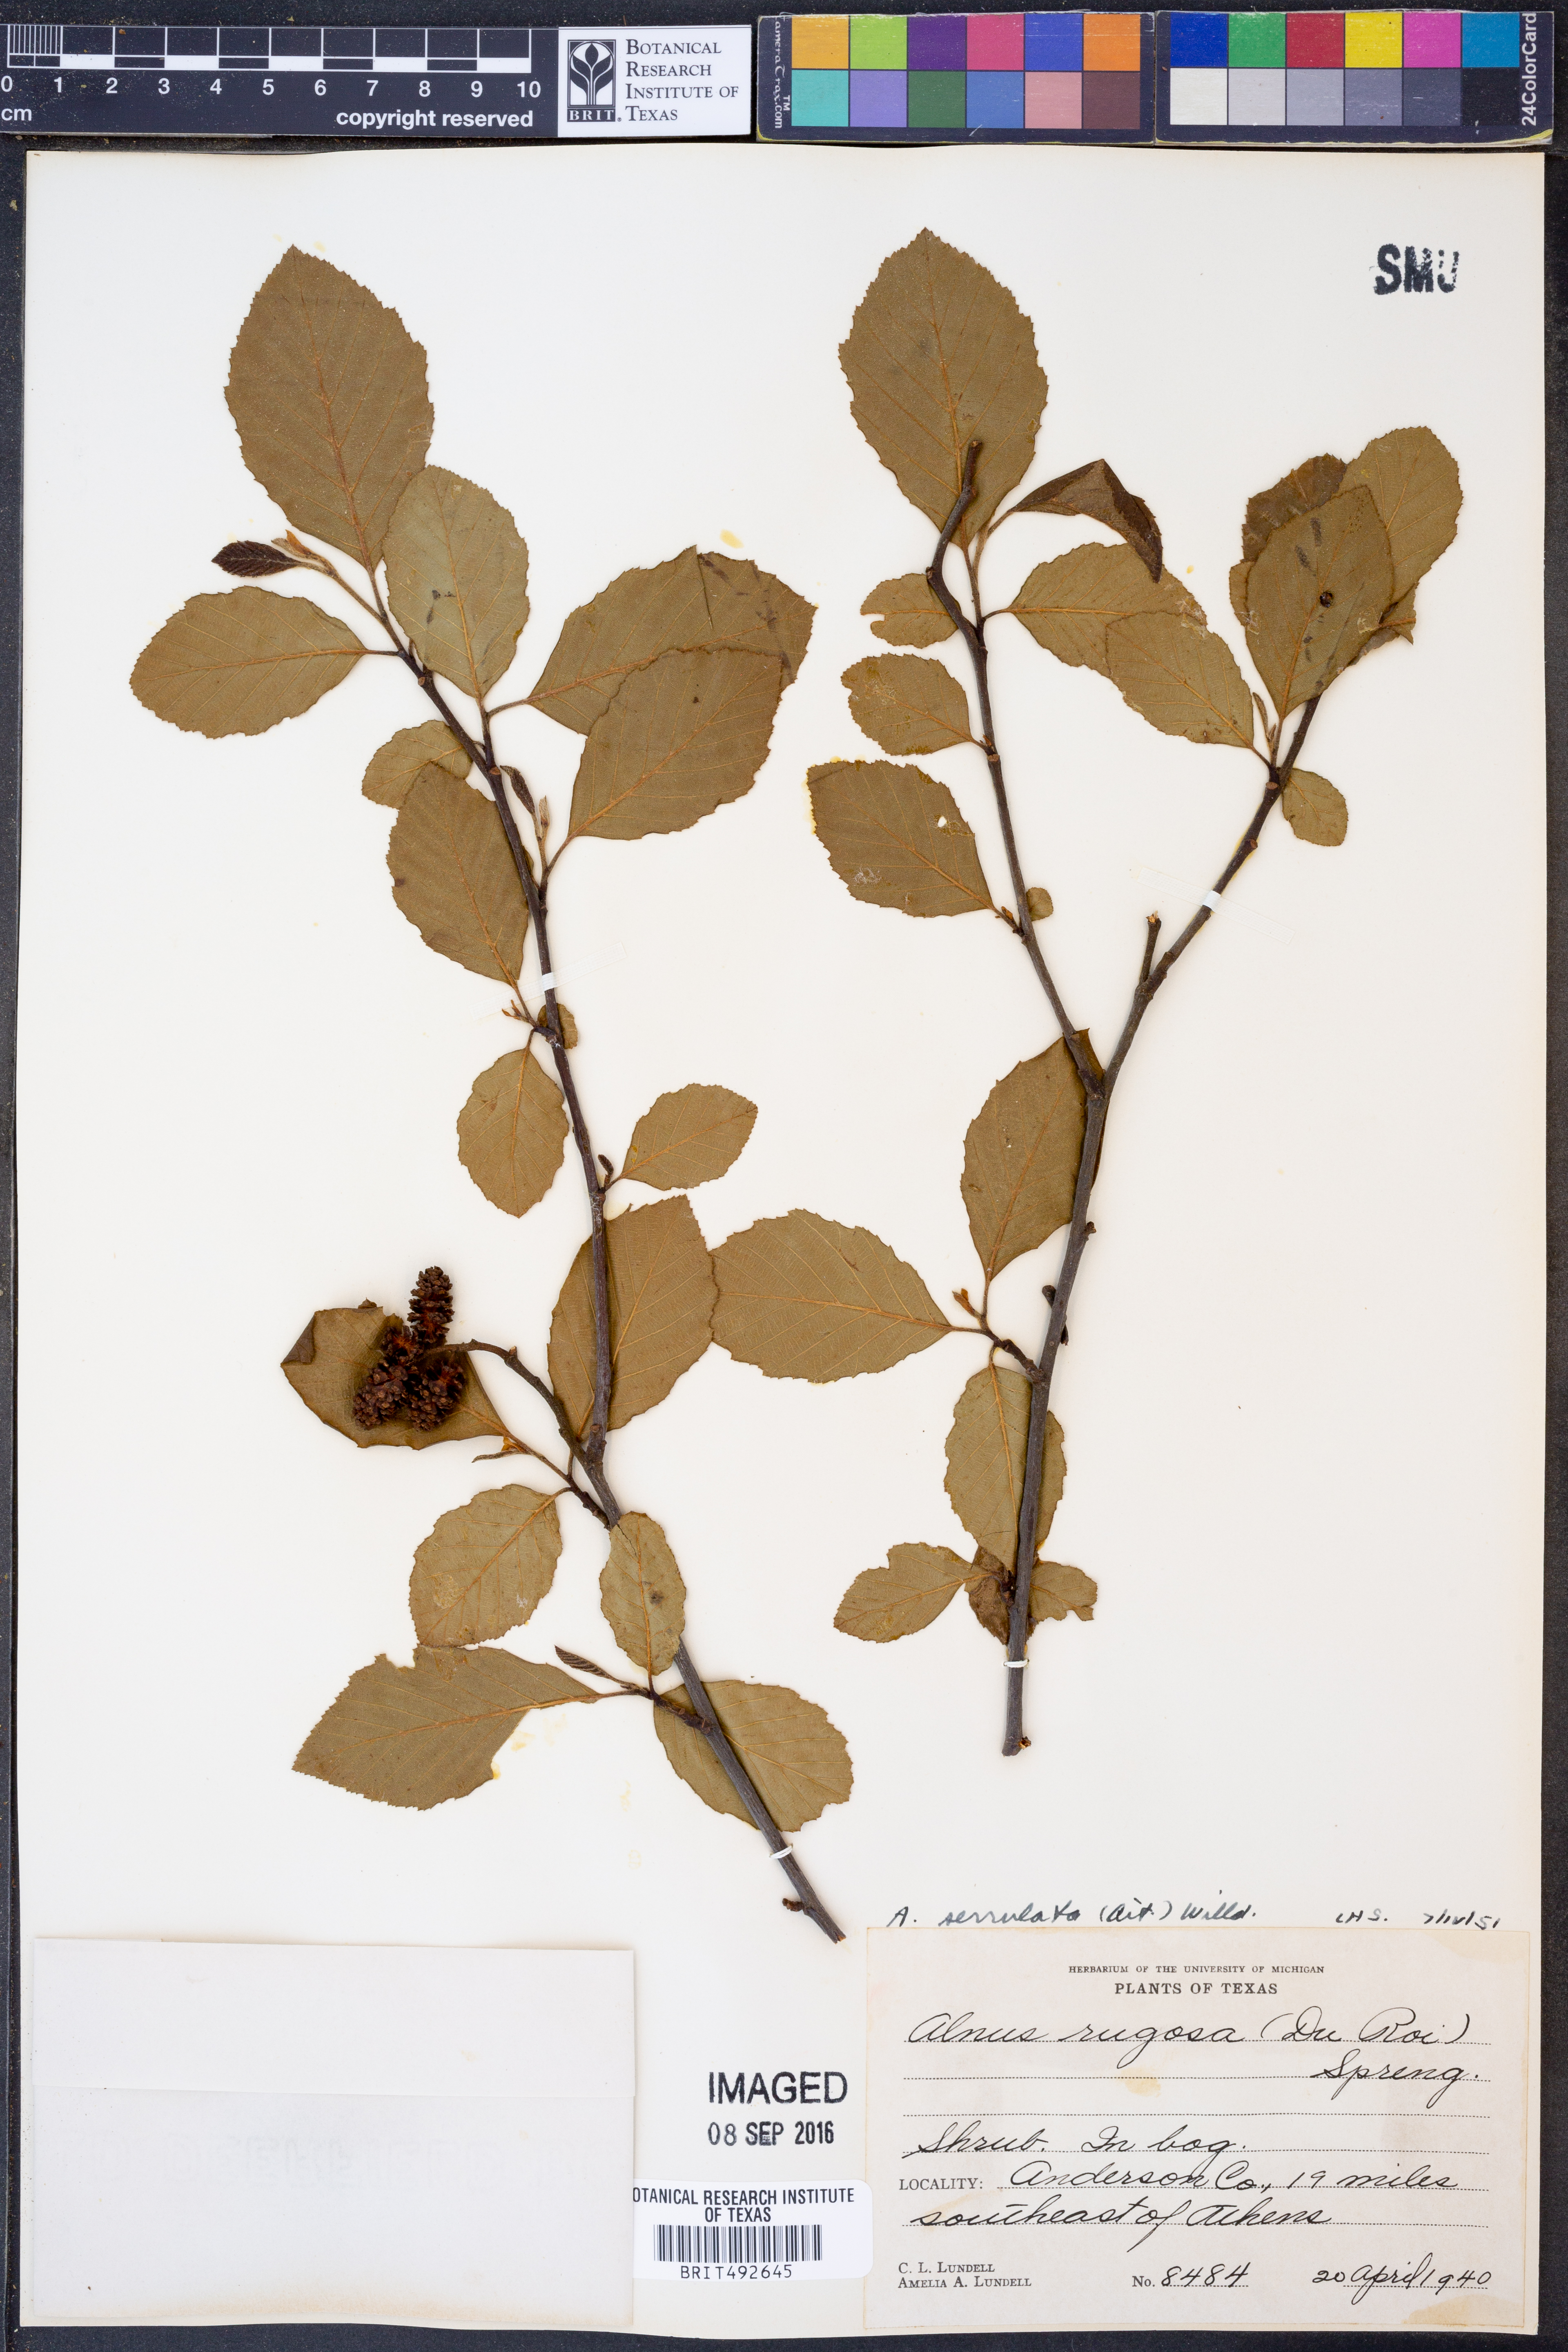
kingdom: Plantae
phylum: Tracheophyta
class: Magnoliopsida
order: Fagales
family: Betulaceae
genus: Alnus
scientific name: Alnus serrulata
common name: Hazel alder
